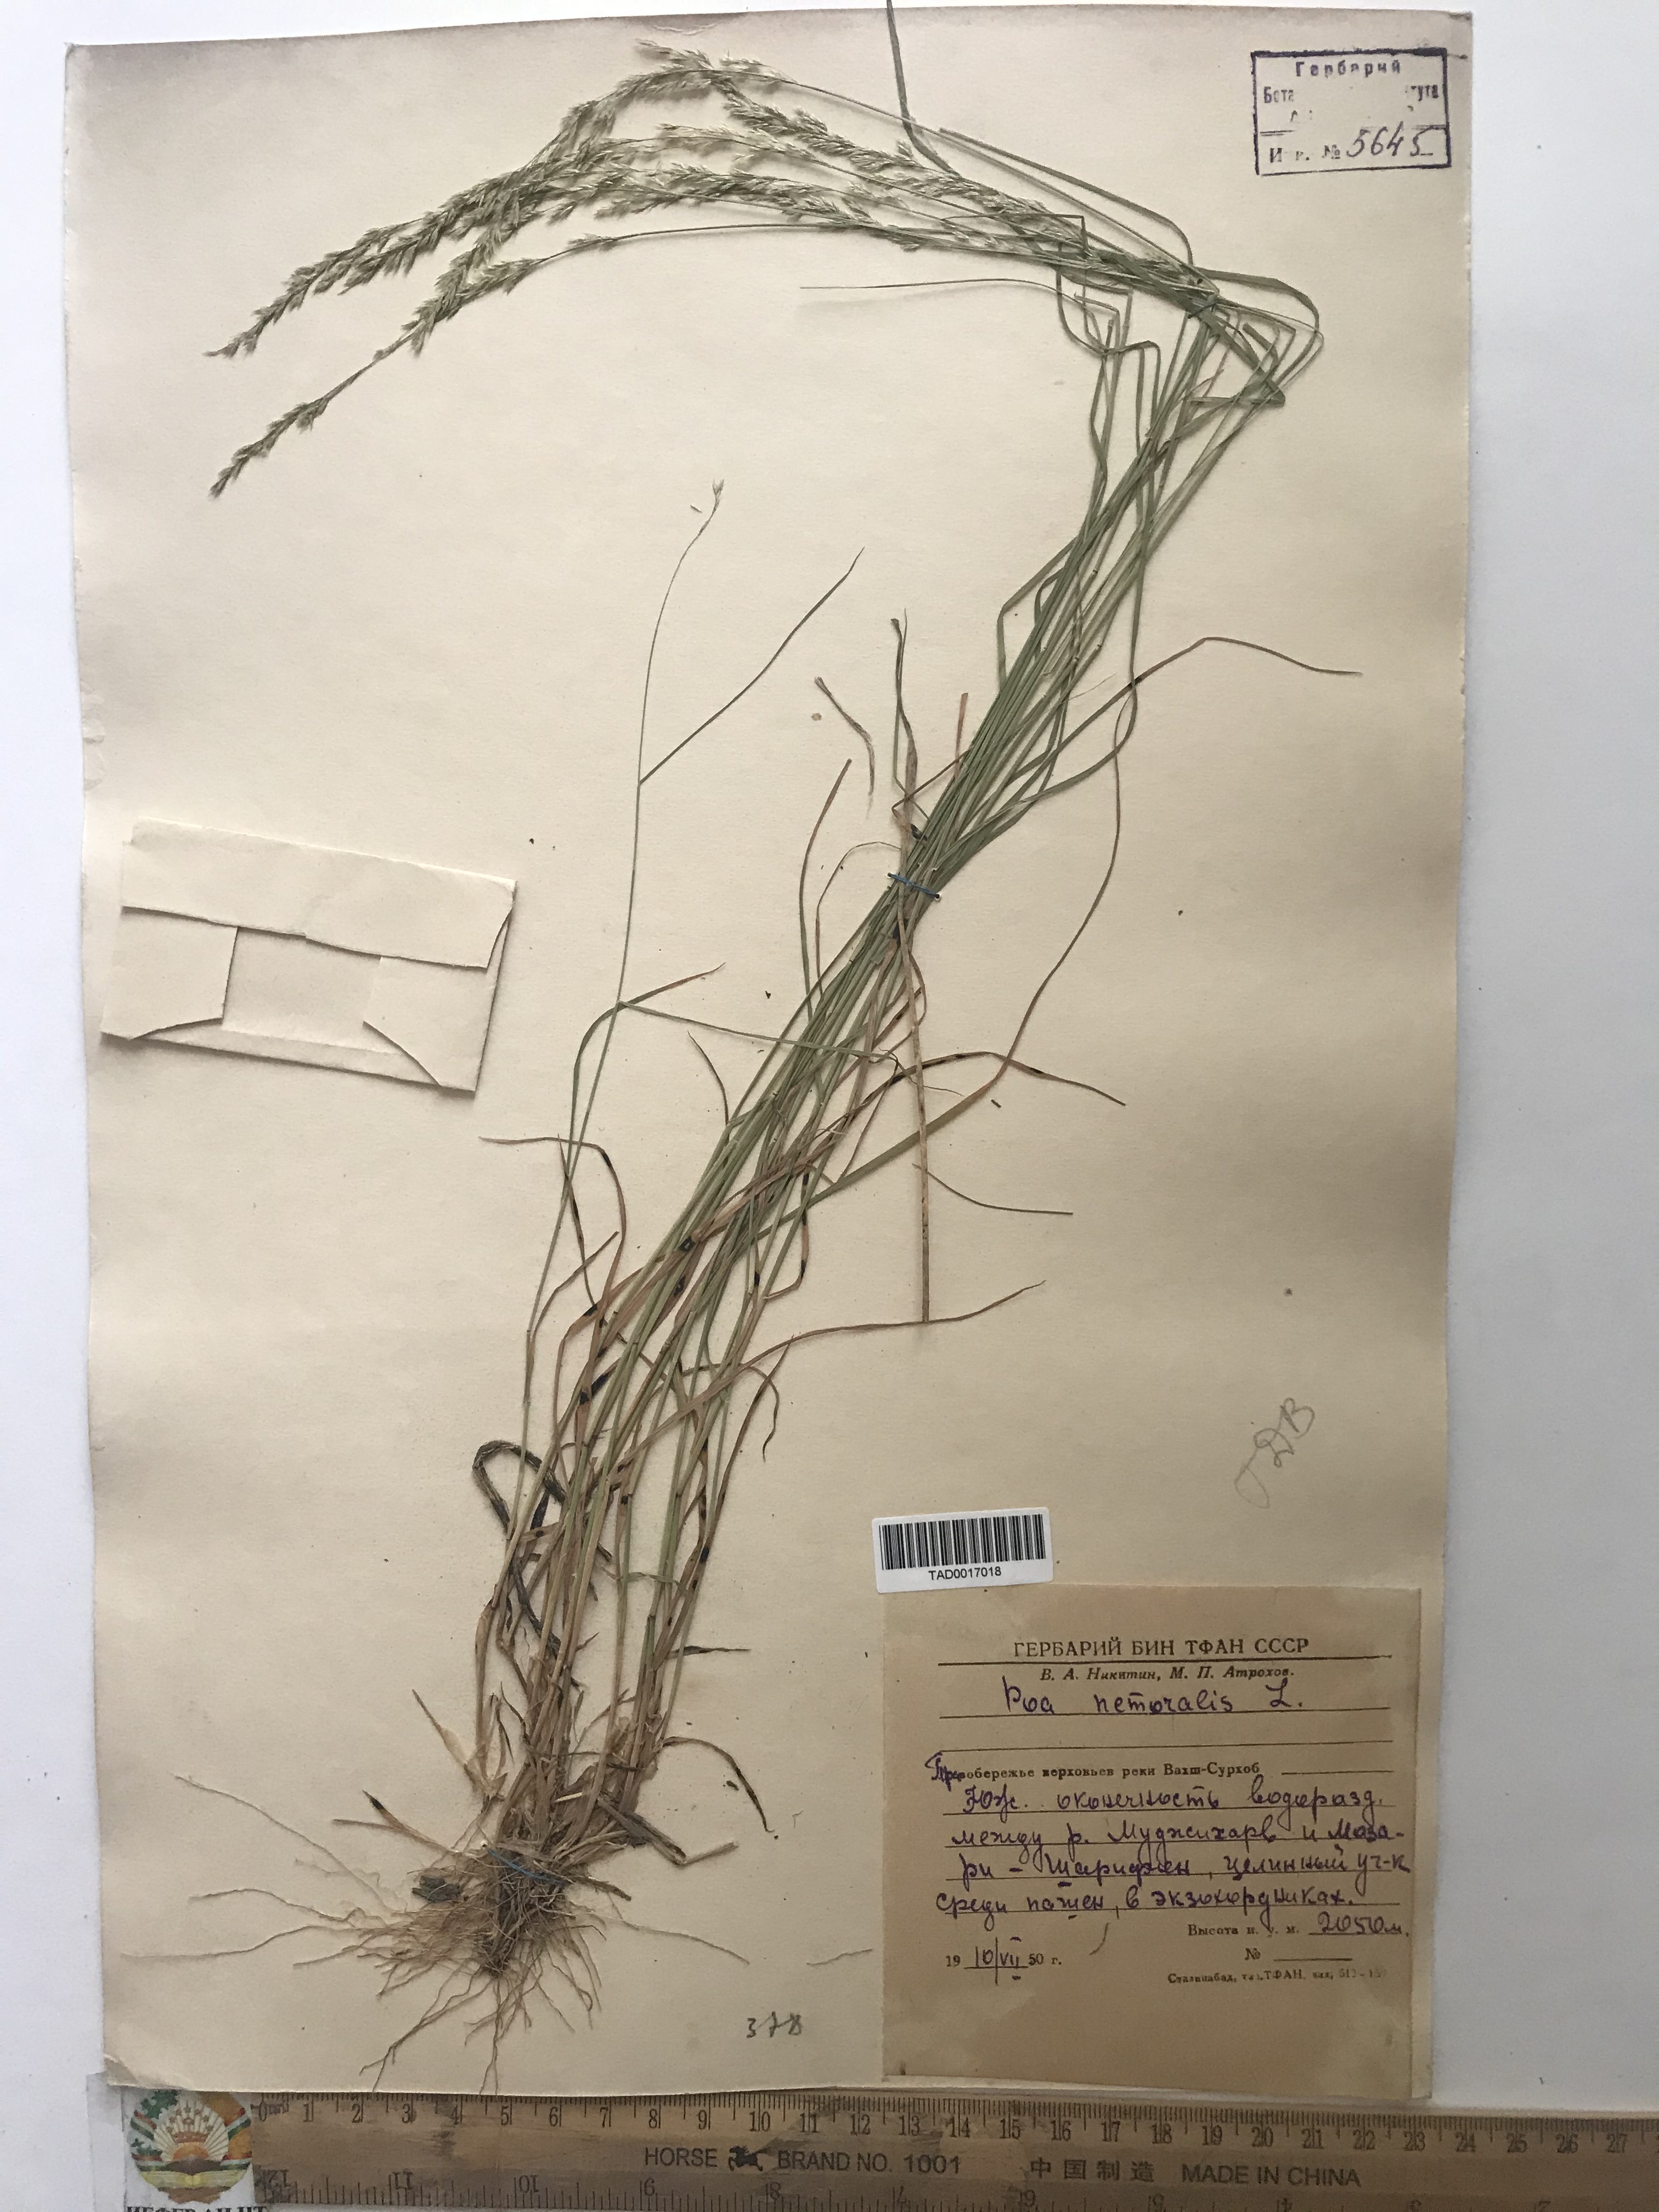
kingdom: Plantae
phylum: Tracheophyta
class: Liliopsida
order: Poales
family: Poaceae
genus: Poa
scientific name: Poa nemoralis
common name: Wood bluegrass
